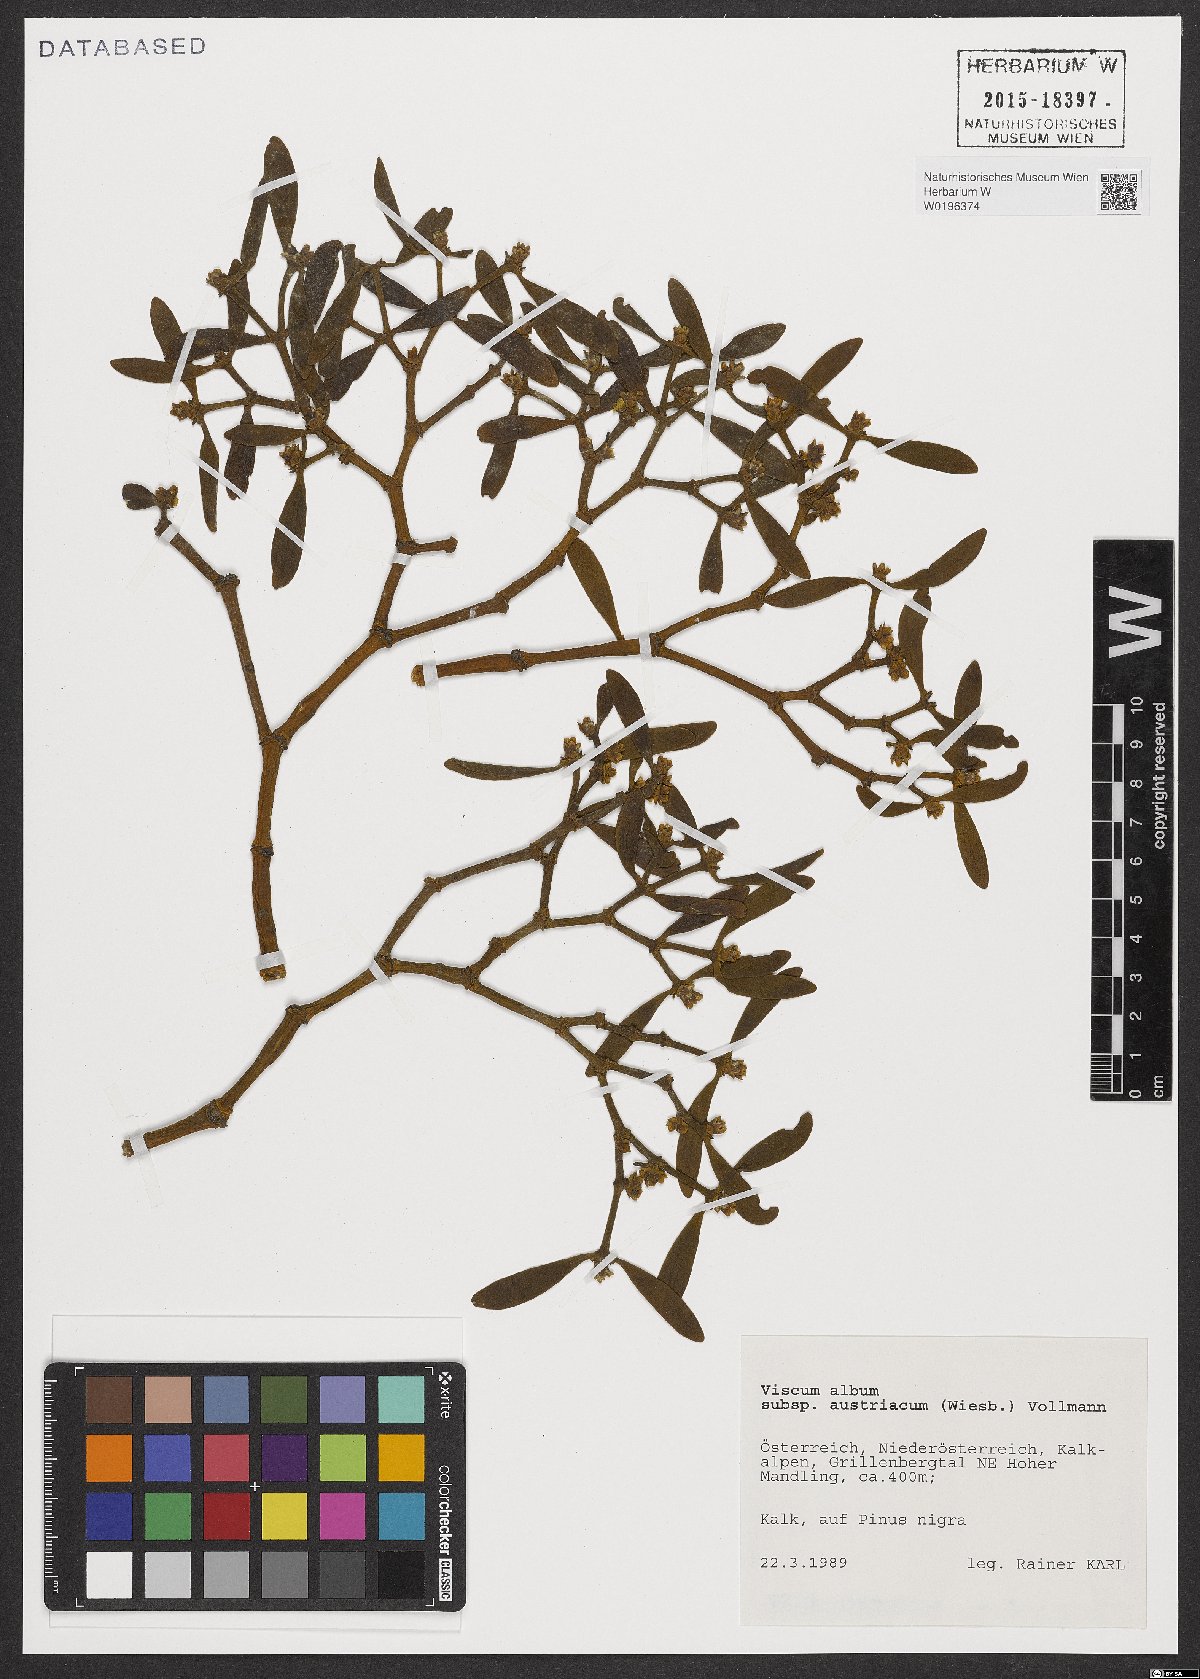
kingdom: Plantae
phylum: Tracheophyta
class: Magnoliopsida
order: Santalales
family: Viscaceae
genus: Viscum
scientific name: Viscum laxum
